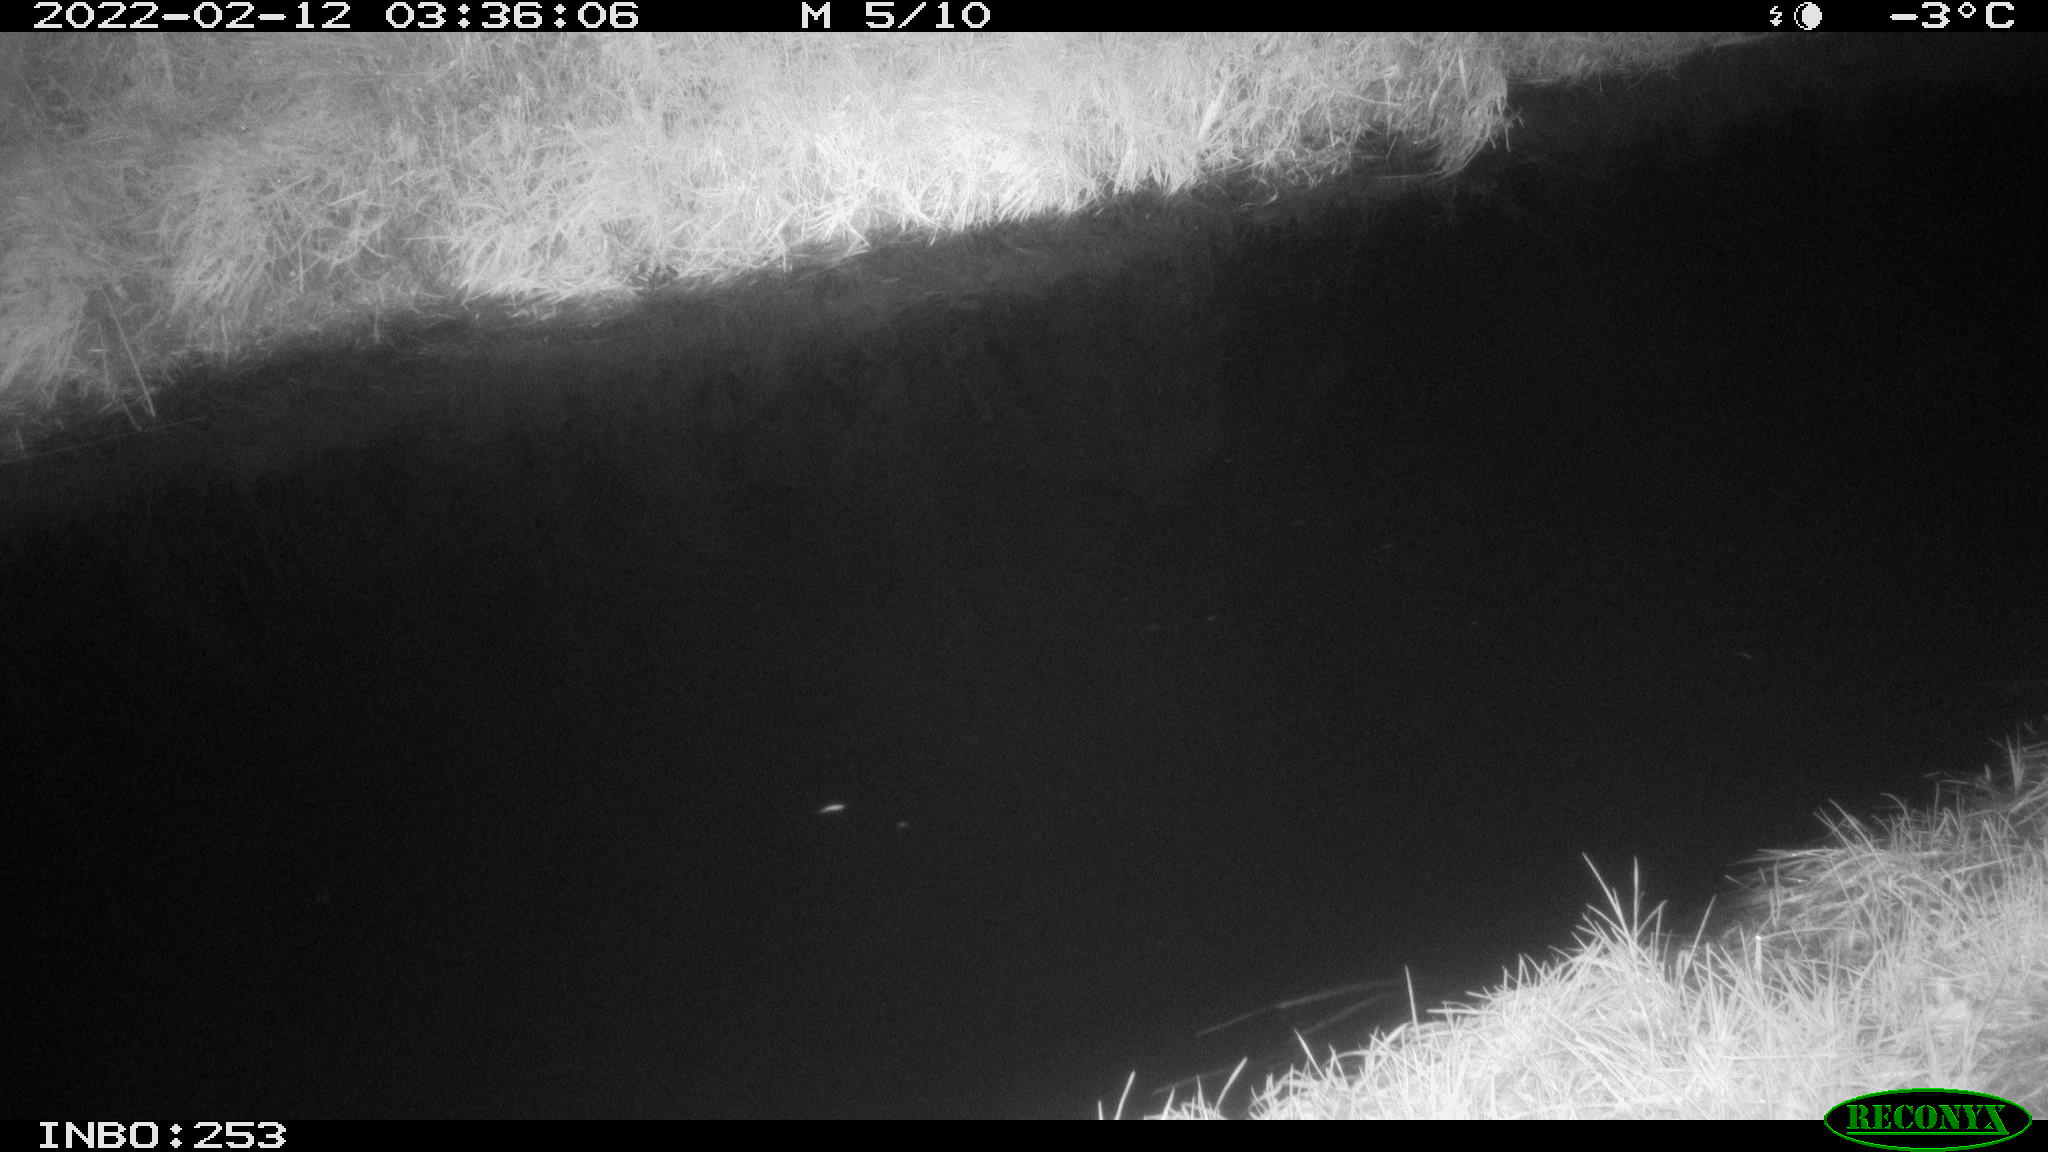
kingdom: Animalia
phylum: Chordata
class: Mammalia
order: Artiodactyla
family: Cervidae
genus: Capreolus
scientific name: Capreolus capreolus
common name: Western roe deer
